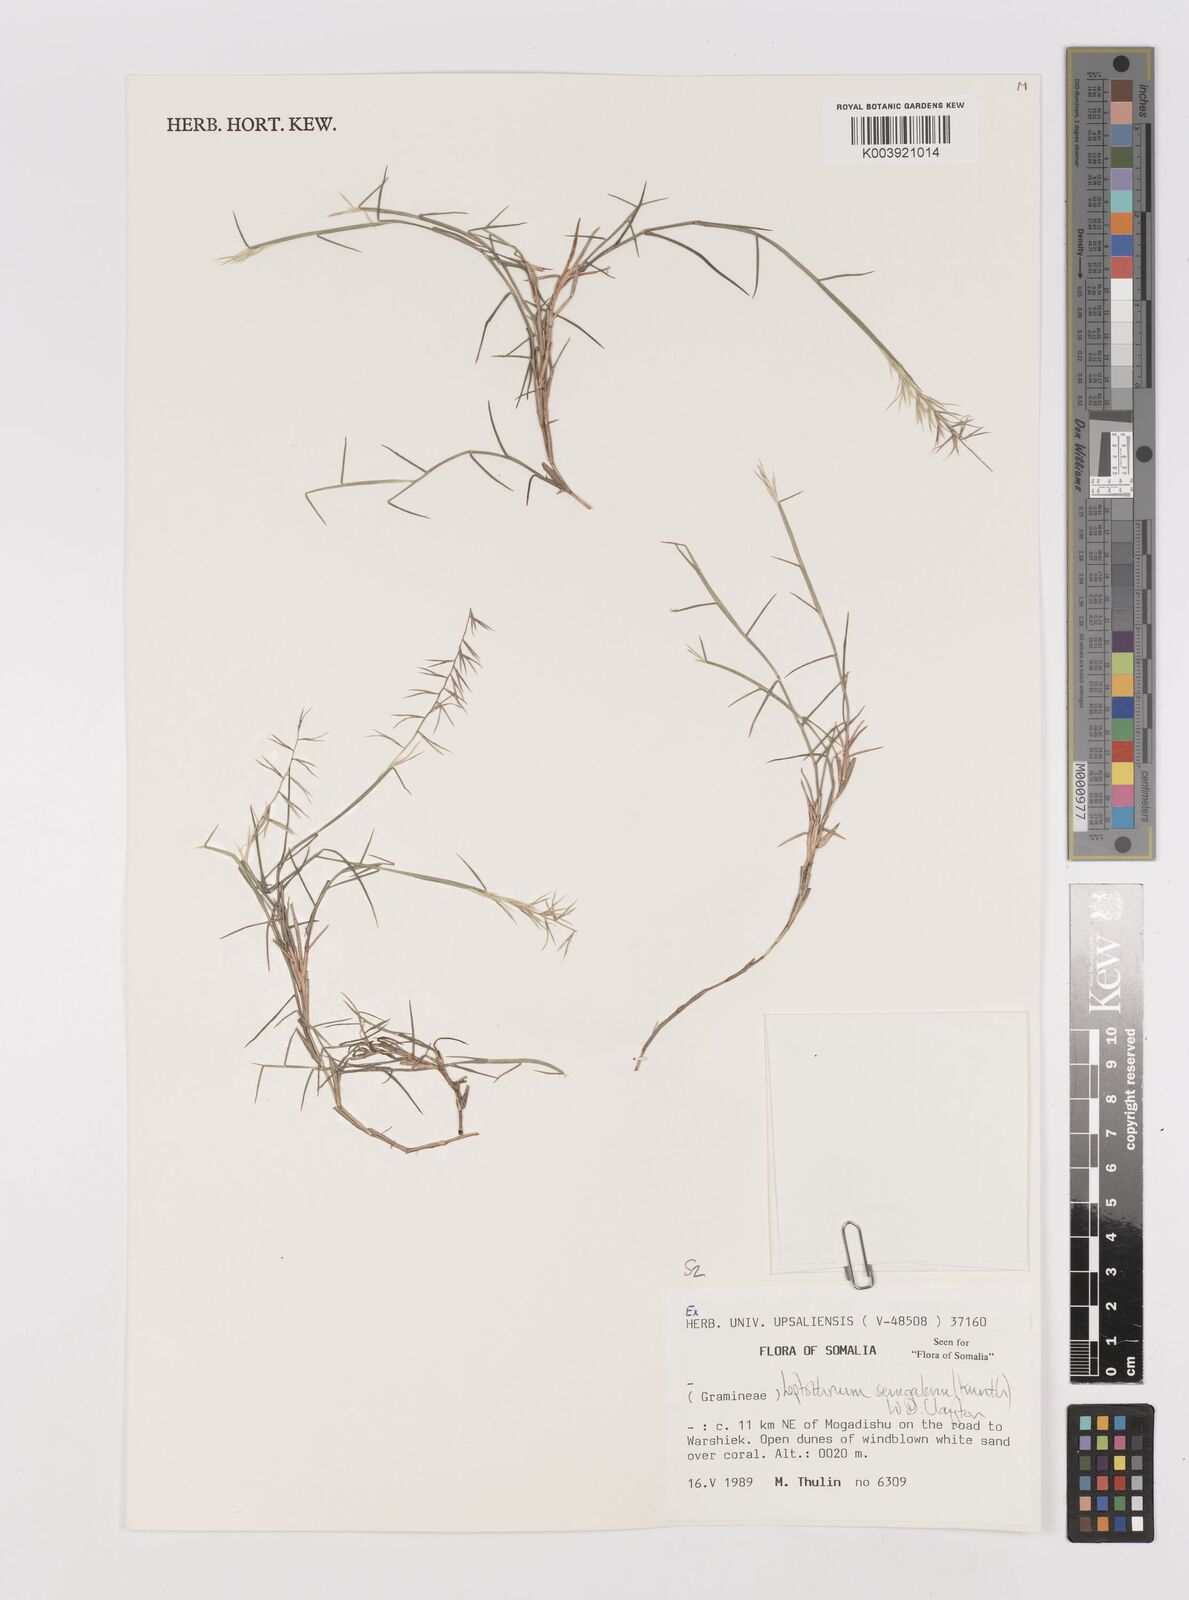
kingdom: Plantae
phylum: Tracheophyta
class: Liliopsida
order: Poales
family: Poaceae
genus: Leptothrium
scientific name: Leptothrium senegalense
